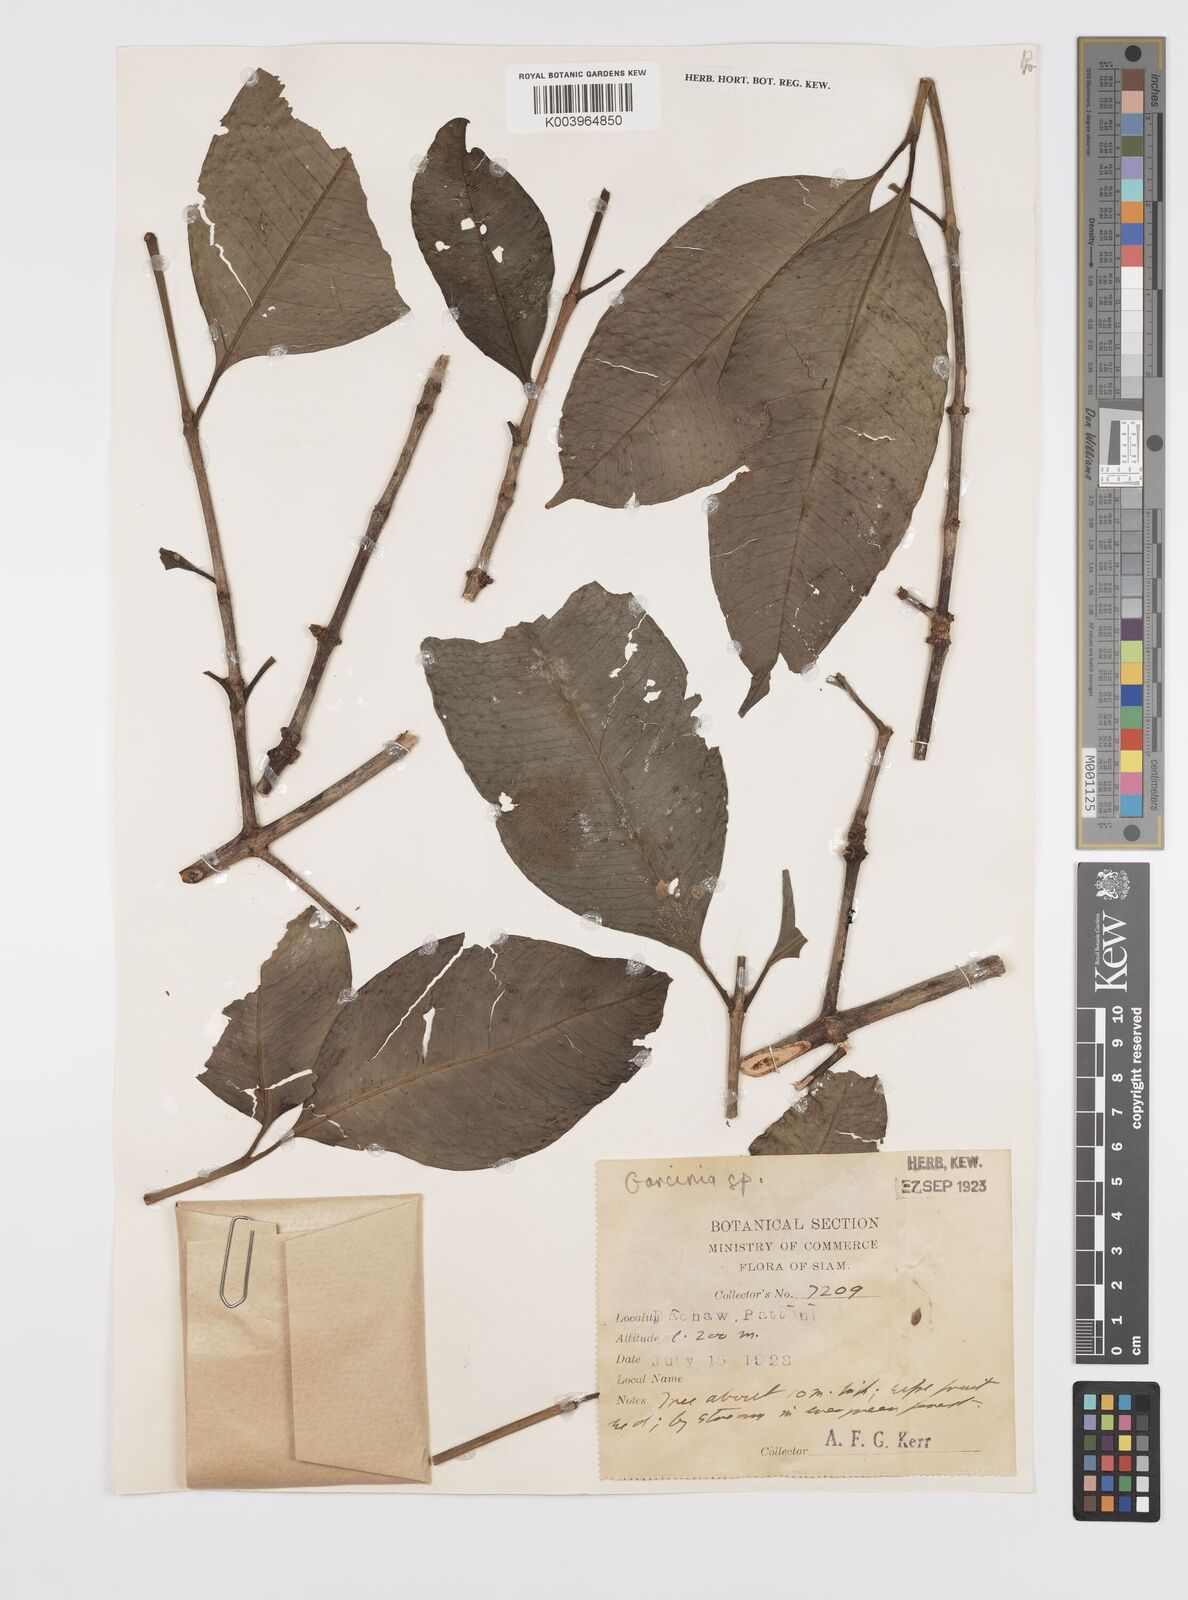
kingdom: Plantae
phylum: Tracheophyta
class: Magnoliopsida
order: Malpighiales
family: Clusiaceae
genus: Garcinia
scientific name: Garcinia
